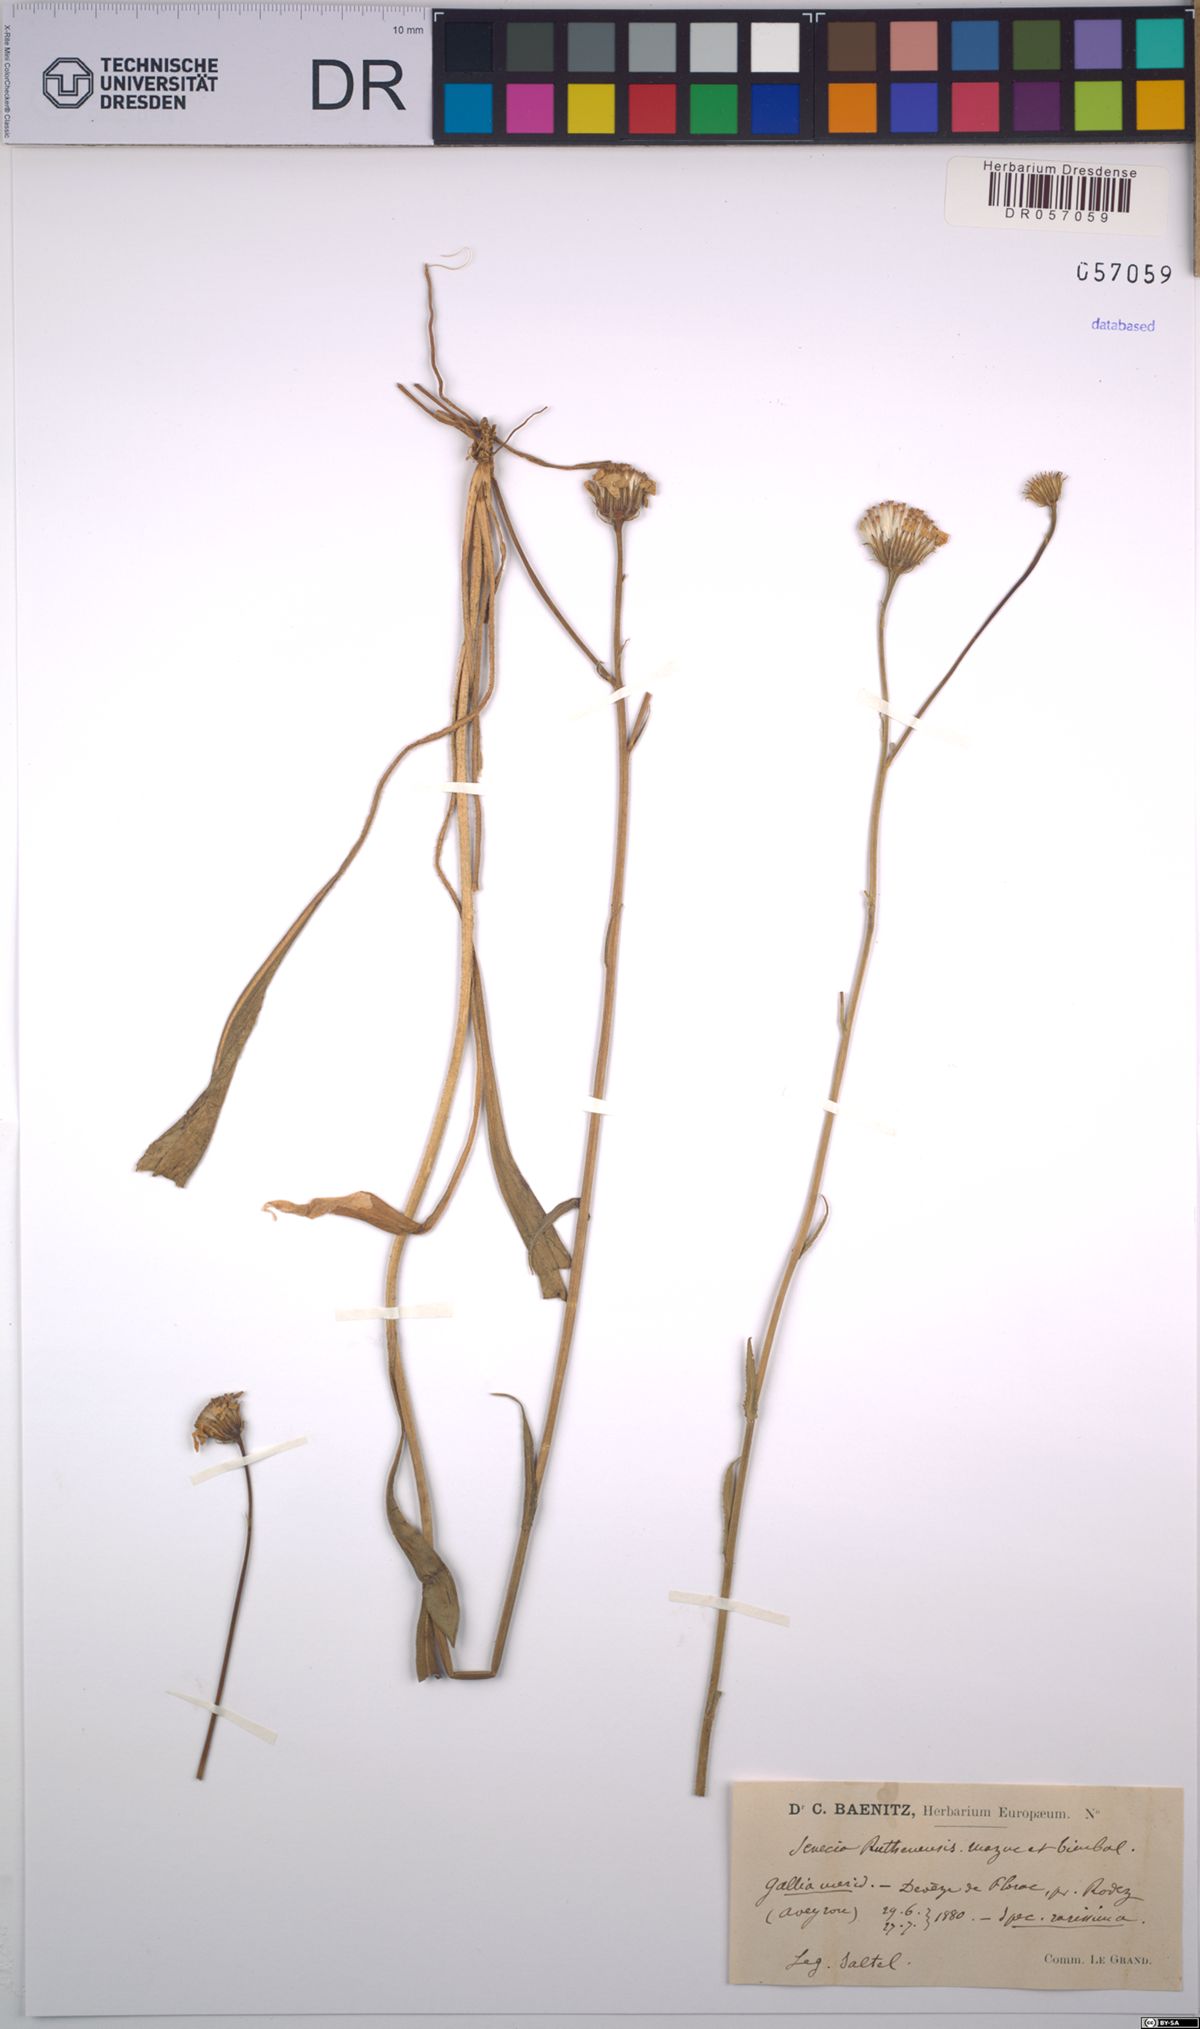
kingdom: Plantae
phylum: Tracheophyta
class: Magnoliopsida
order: Asterales
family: Asteraceae
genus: Senecio
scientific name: Senecio lagascanus
